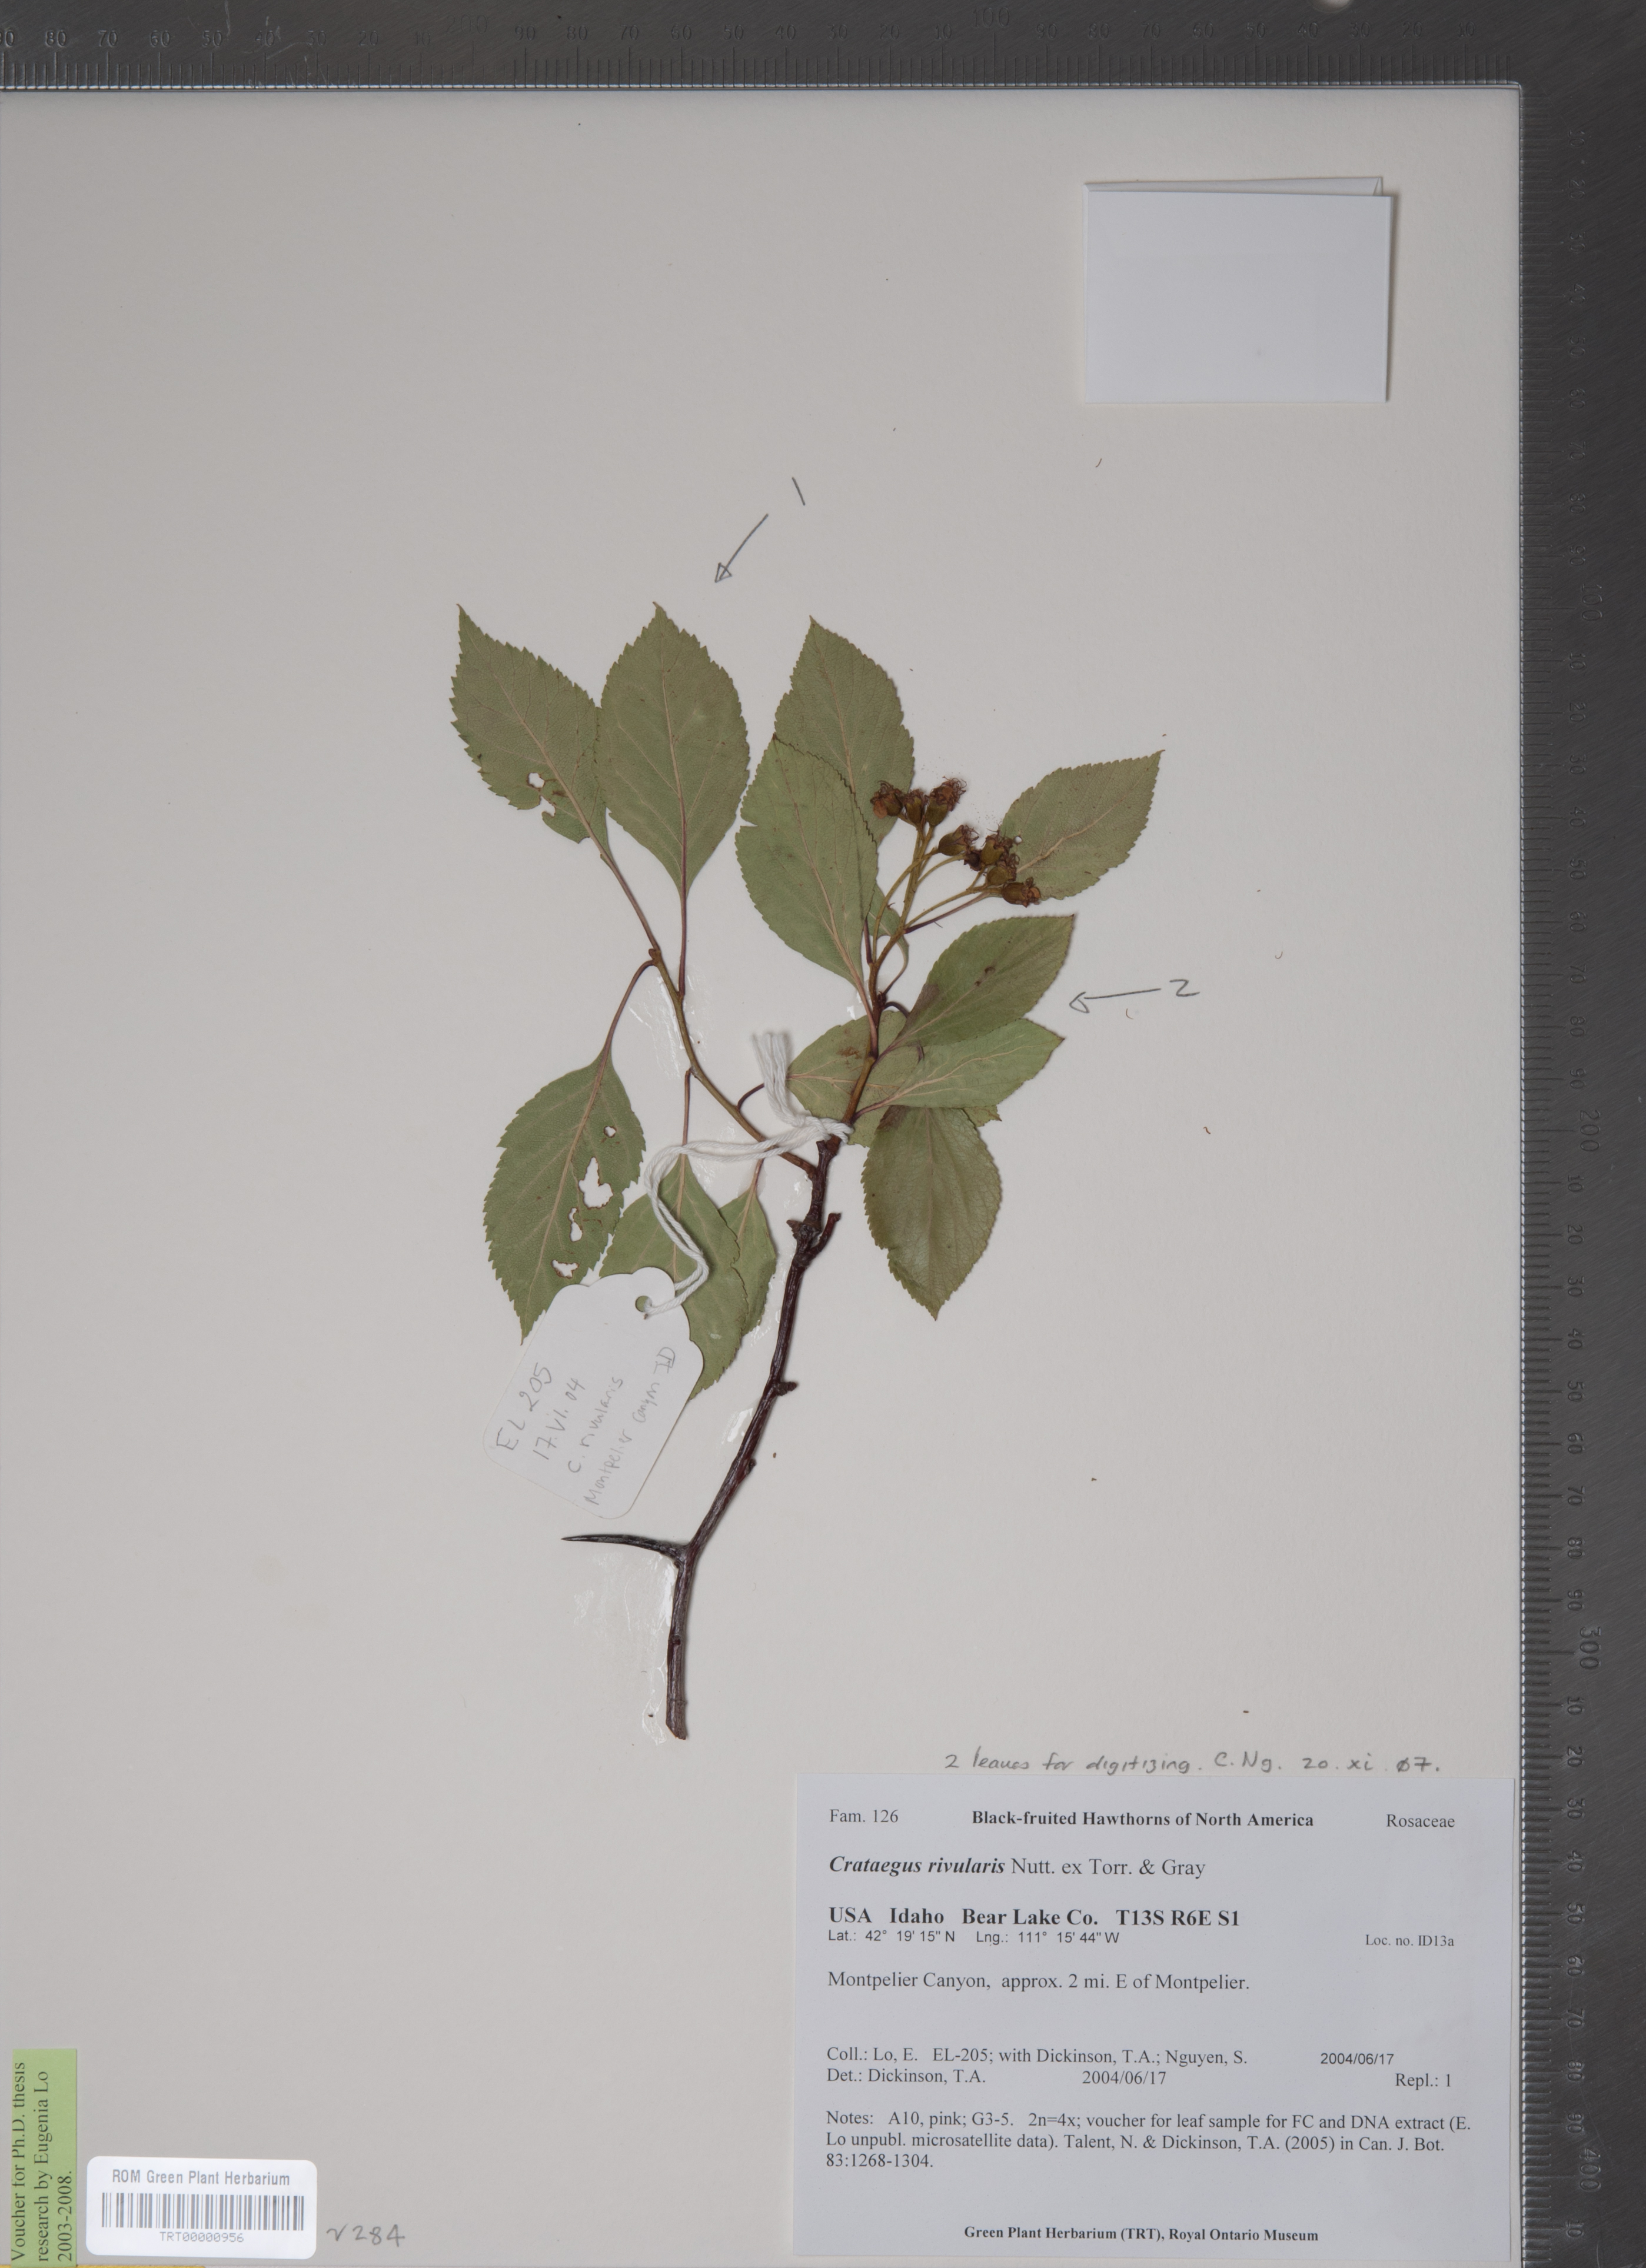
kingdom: Plantae
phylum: Tracheophyta
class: Magnoliopsida
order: Rosales
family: Rosaceae
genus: Crataegus
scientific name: Crataegus rivularis
